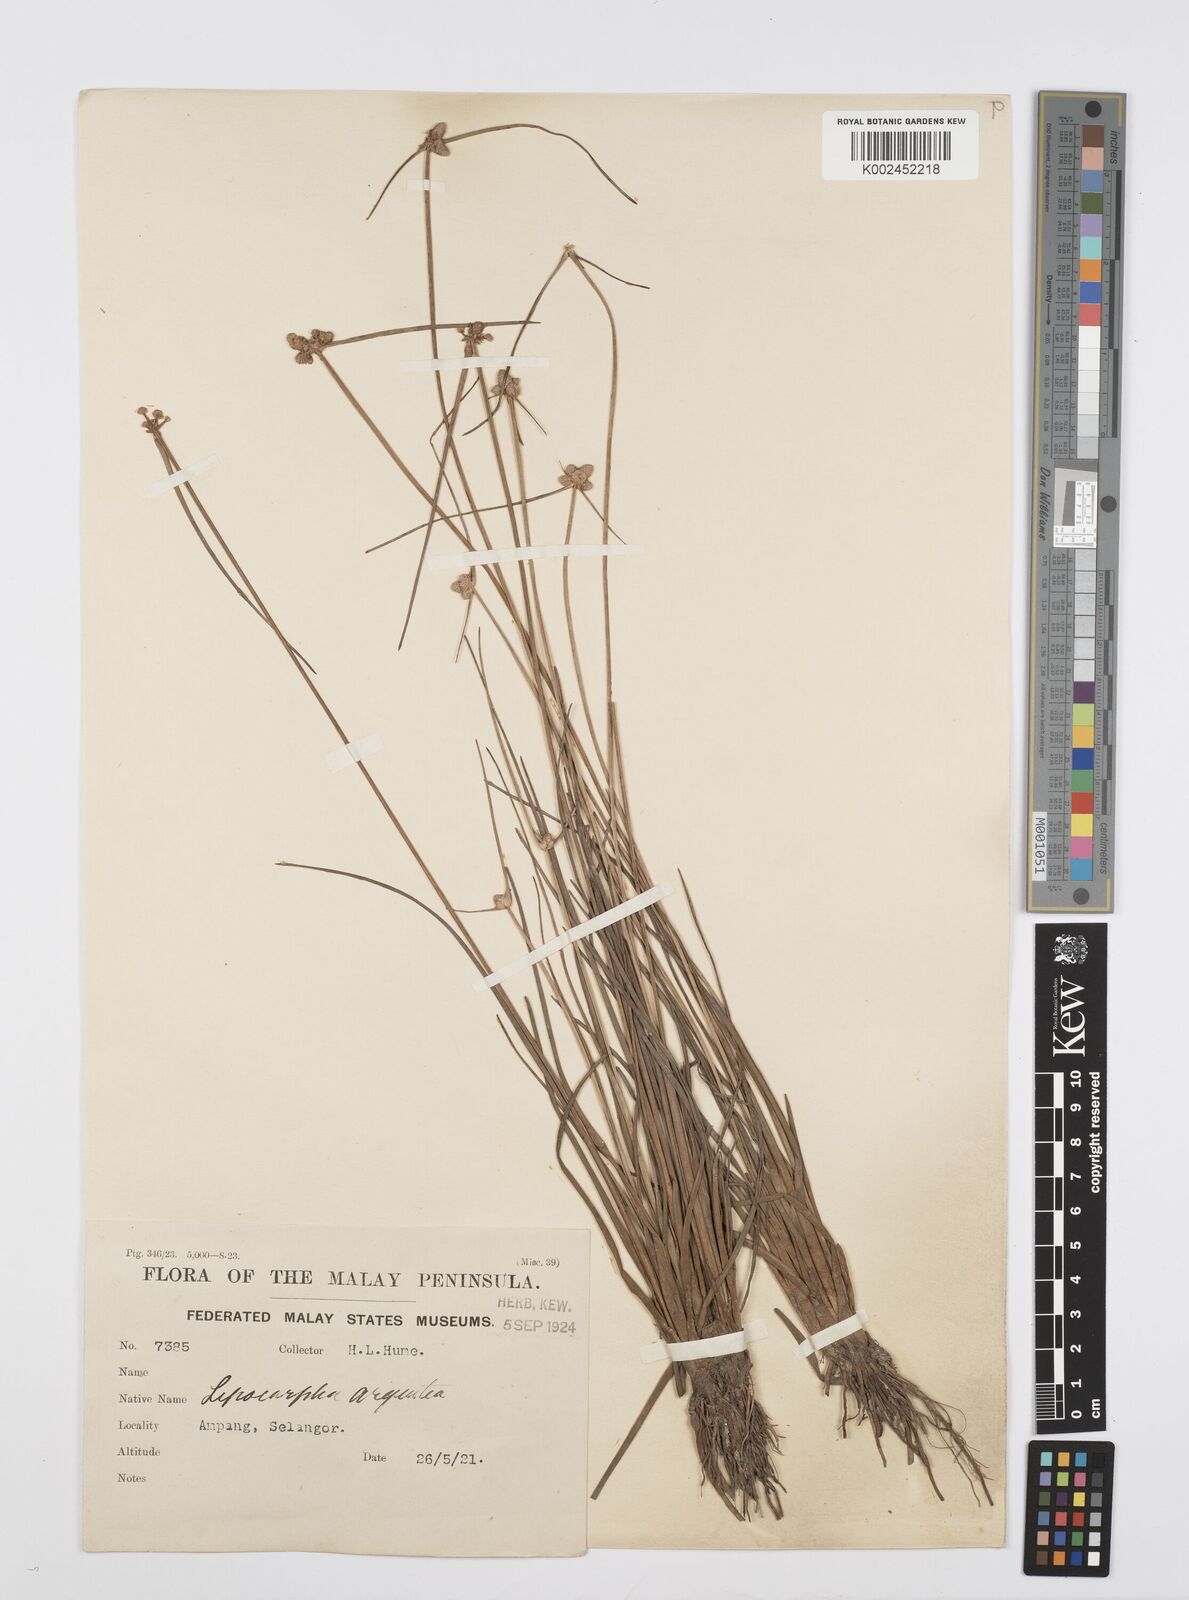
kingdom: Plantae
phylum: Tracheophyta
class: Liliopsida
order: Poales
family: Cyperaceae
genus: Cyperus
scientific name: Cyperus
